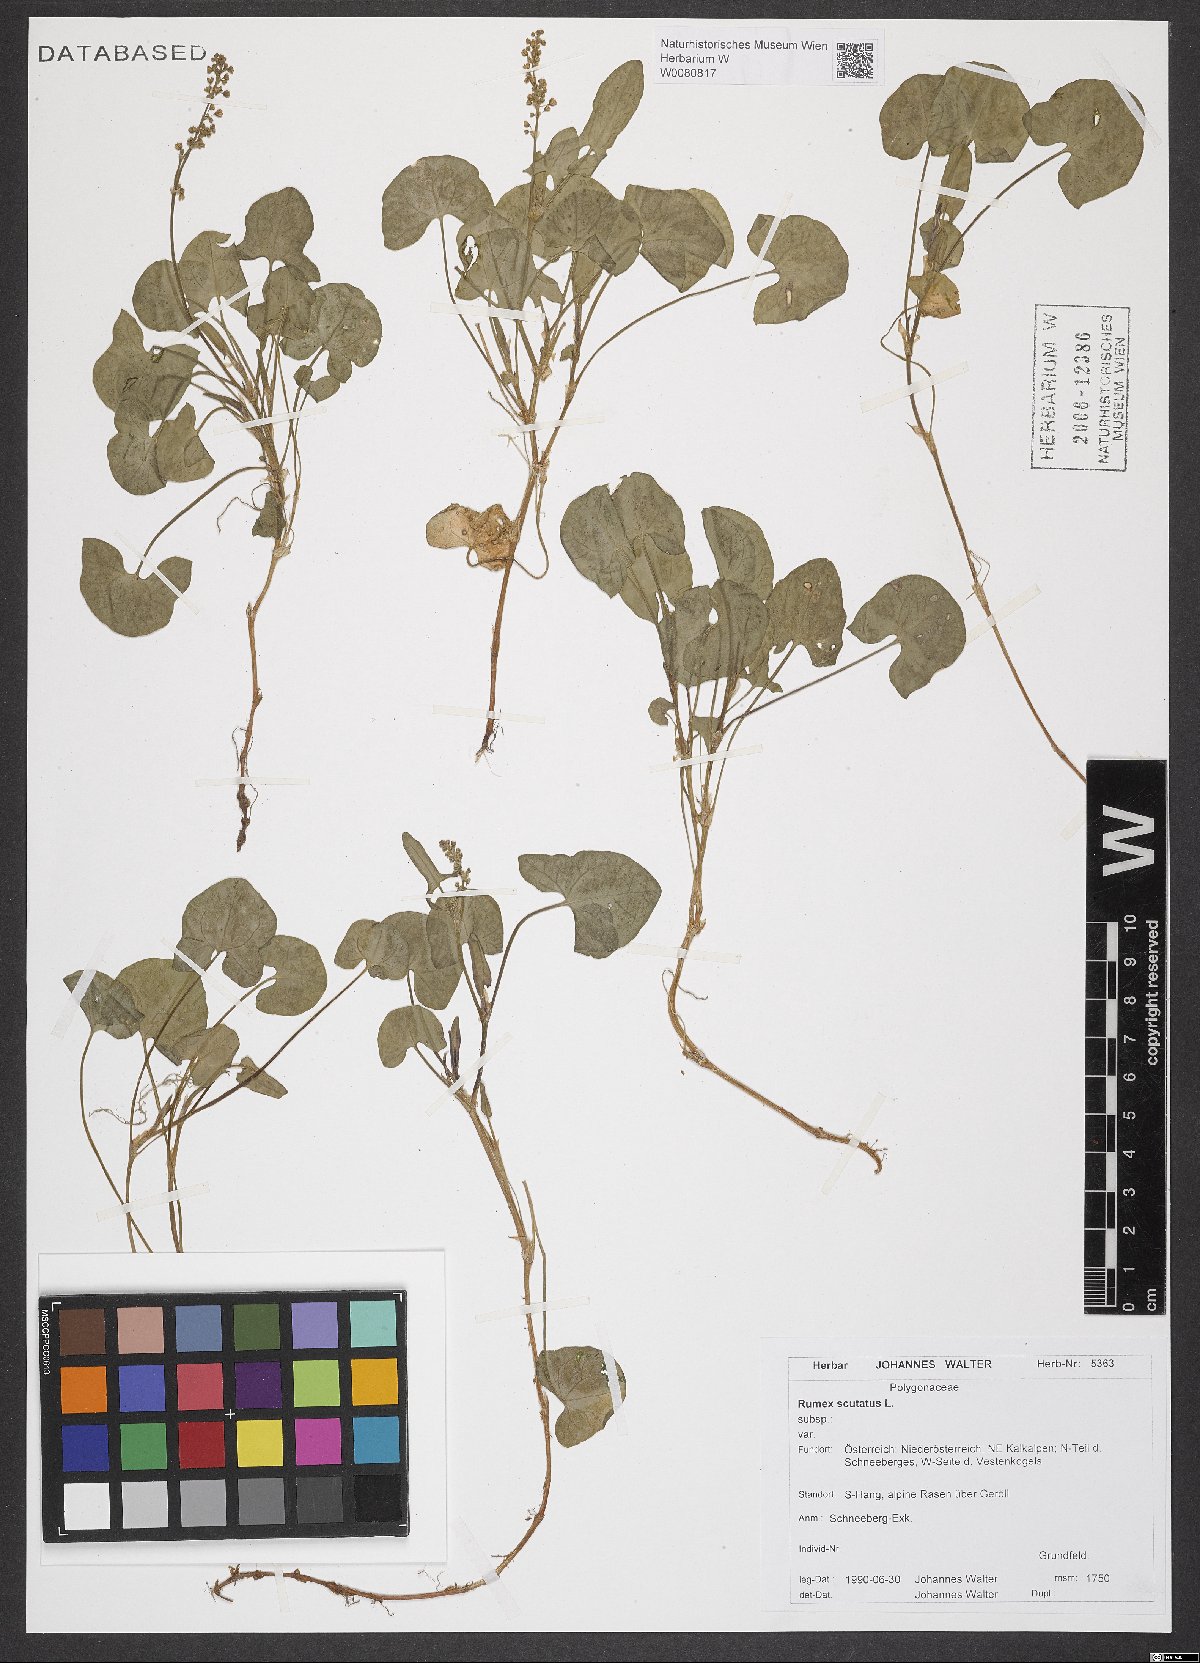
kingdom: Plantae
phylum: Tracheophyta
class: Magnoliopsida
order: Caryophyllales
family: Polygonaceae
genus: Rumex
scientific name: Rumex scutatus
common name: French sorrel
